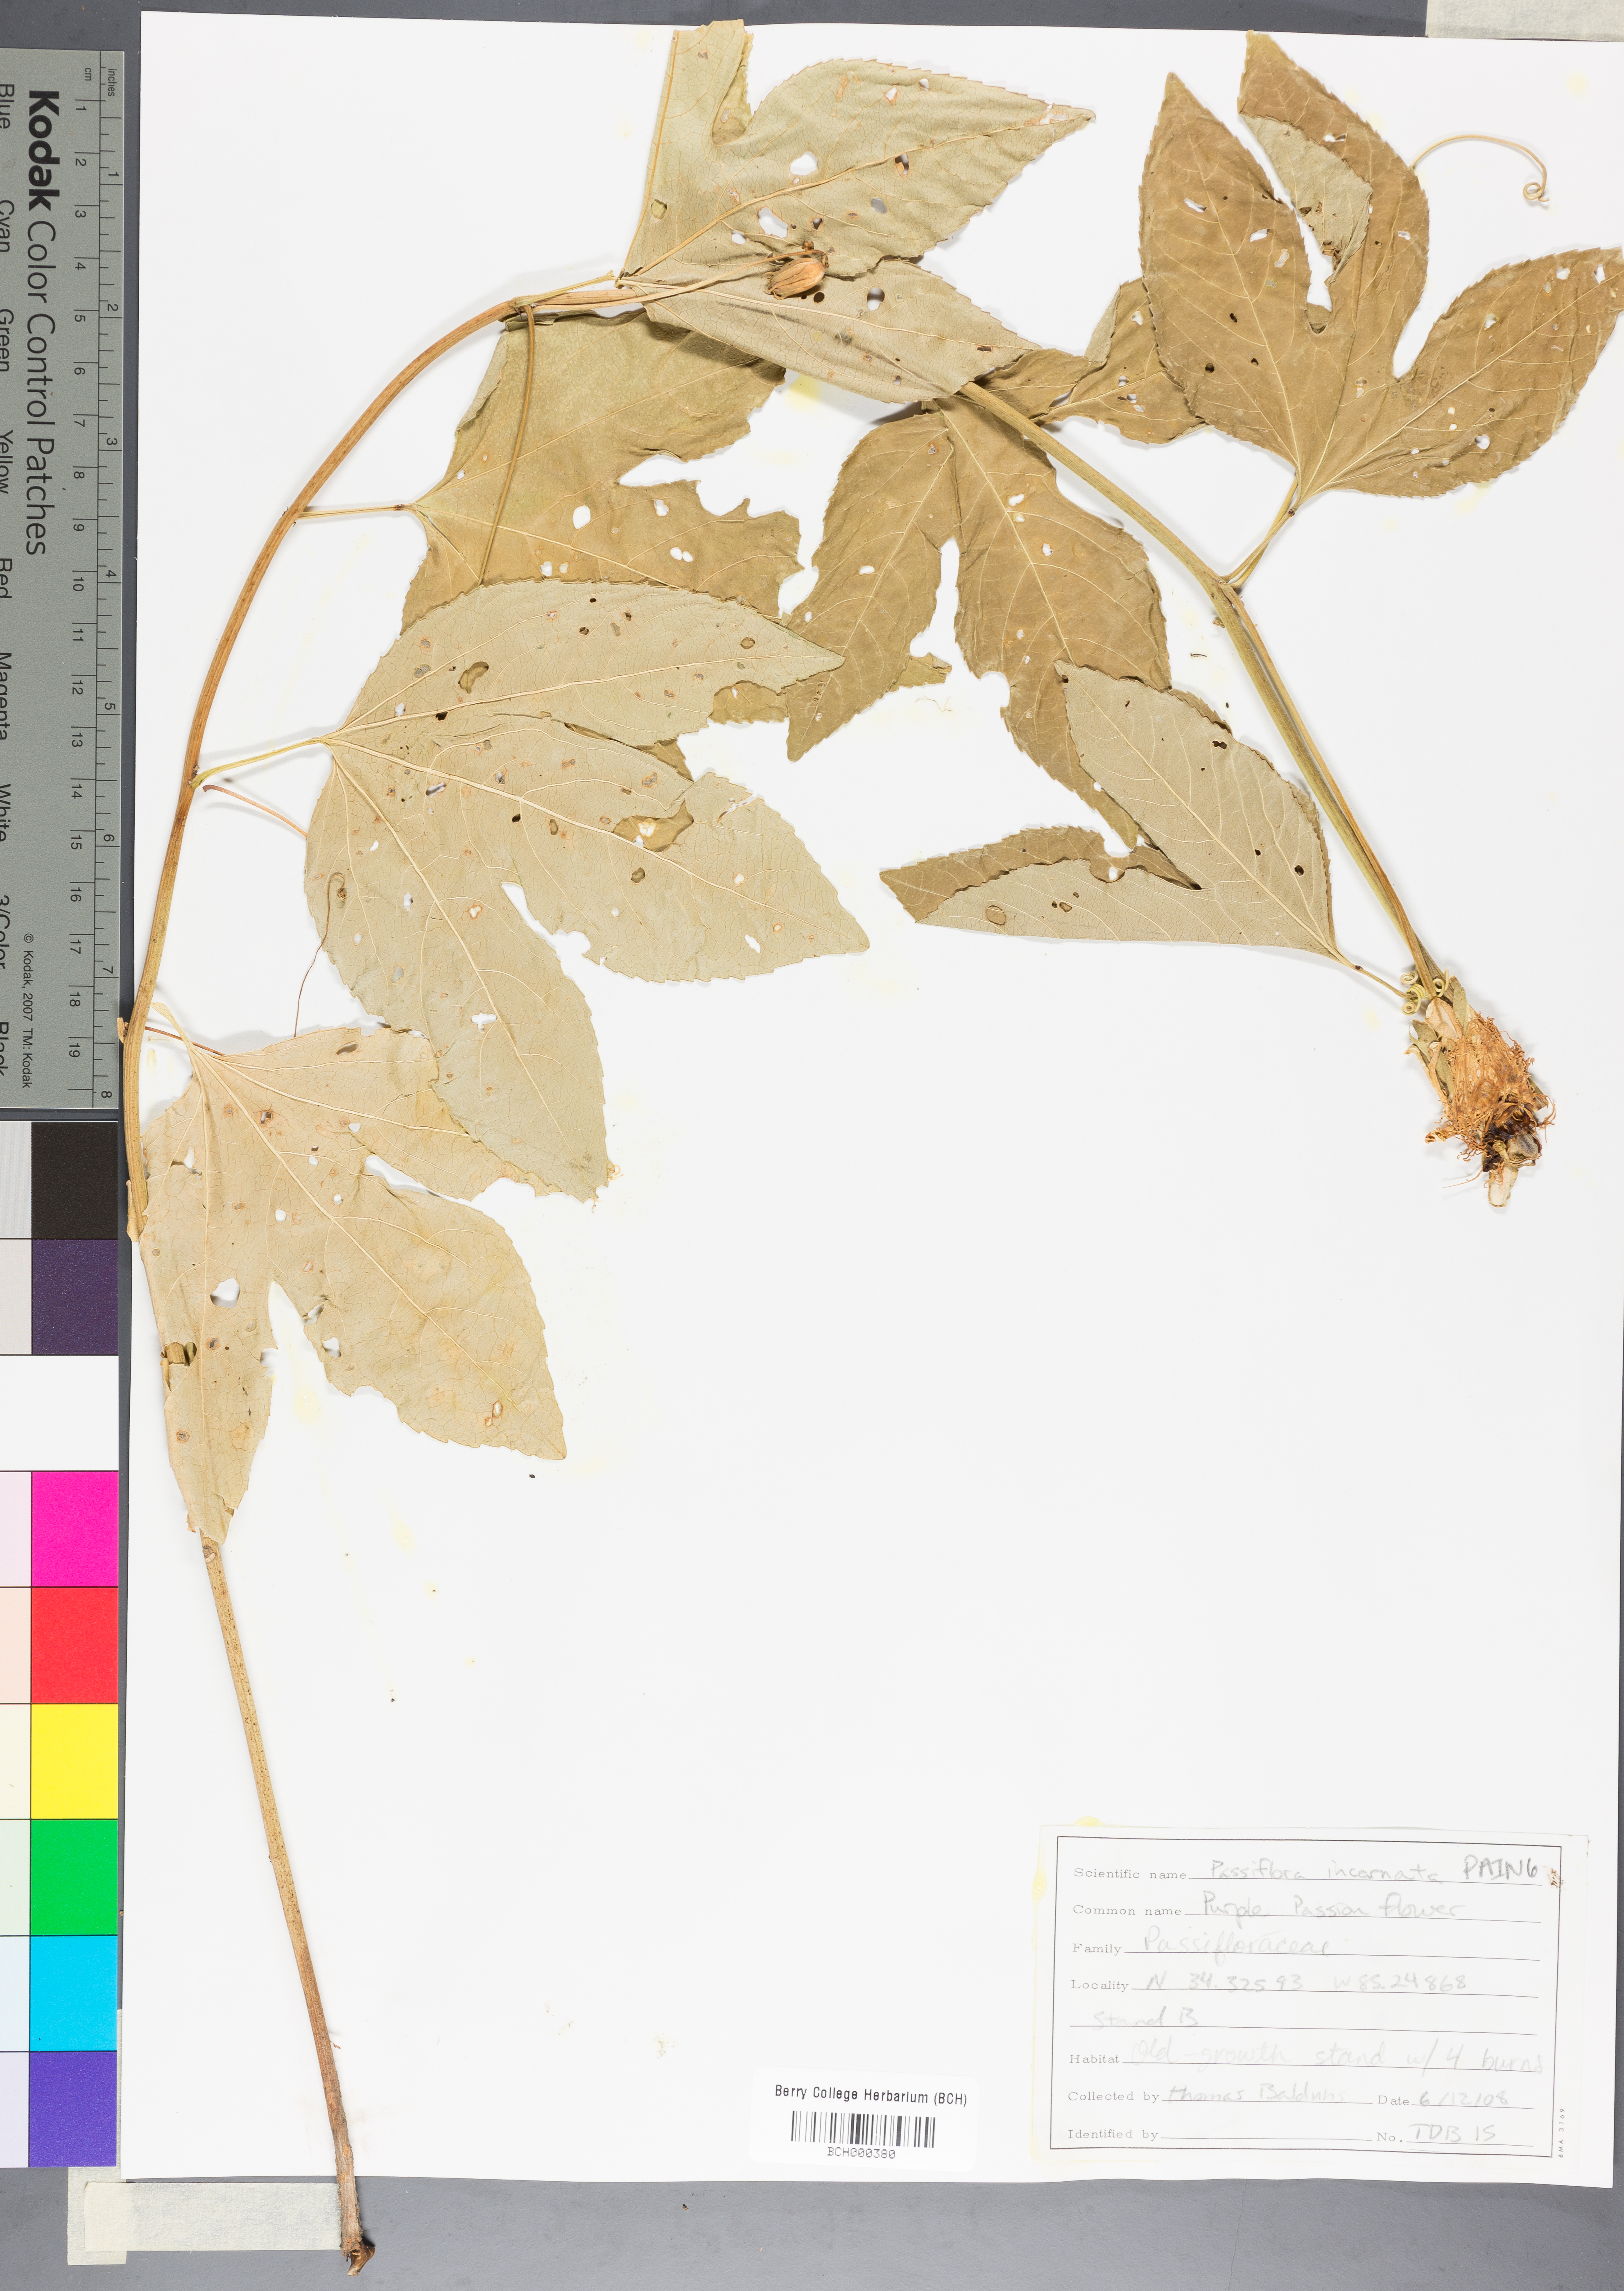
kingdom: Plantae
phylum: Tracheophyta
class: Magnoliopsida
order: Malpighiales
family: Passifloraceae
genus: Passiflora
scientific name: Passiflora incarnata
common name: Apricot-vine
